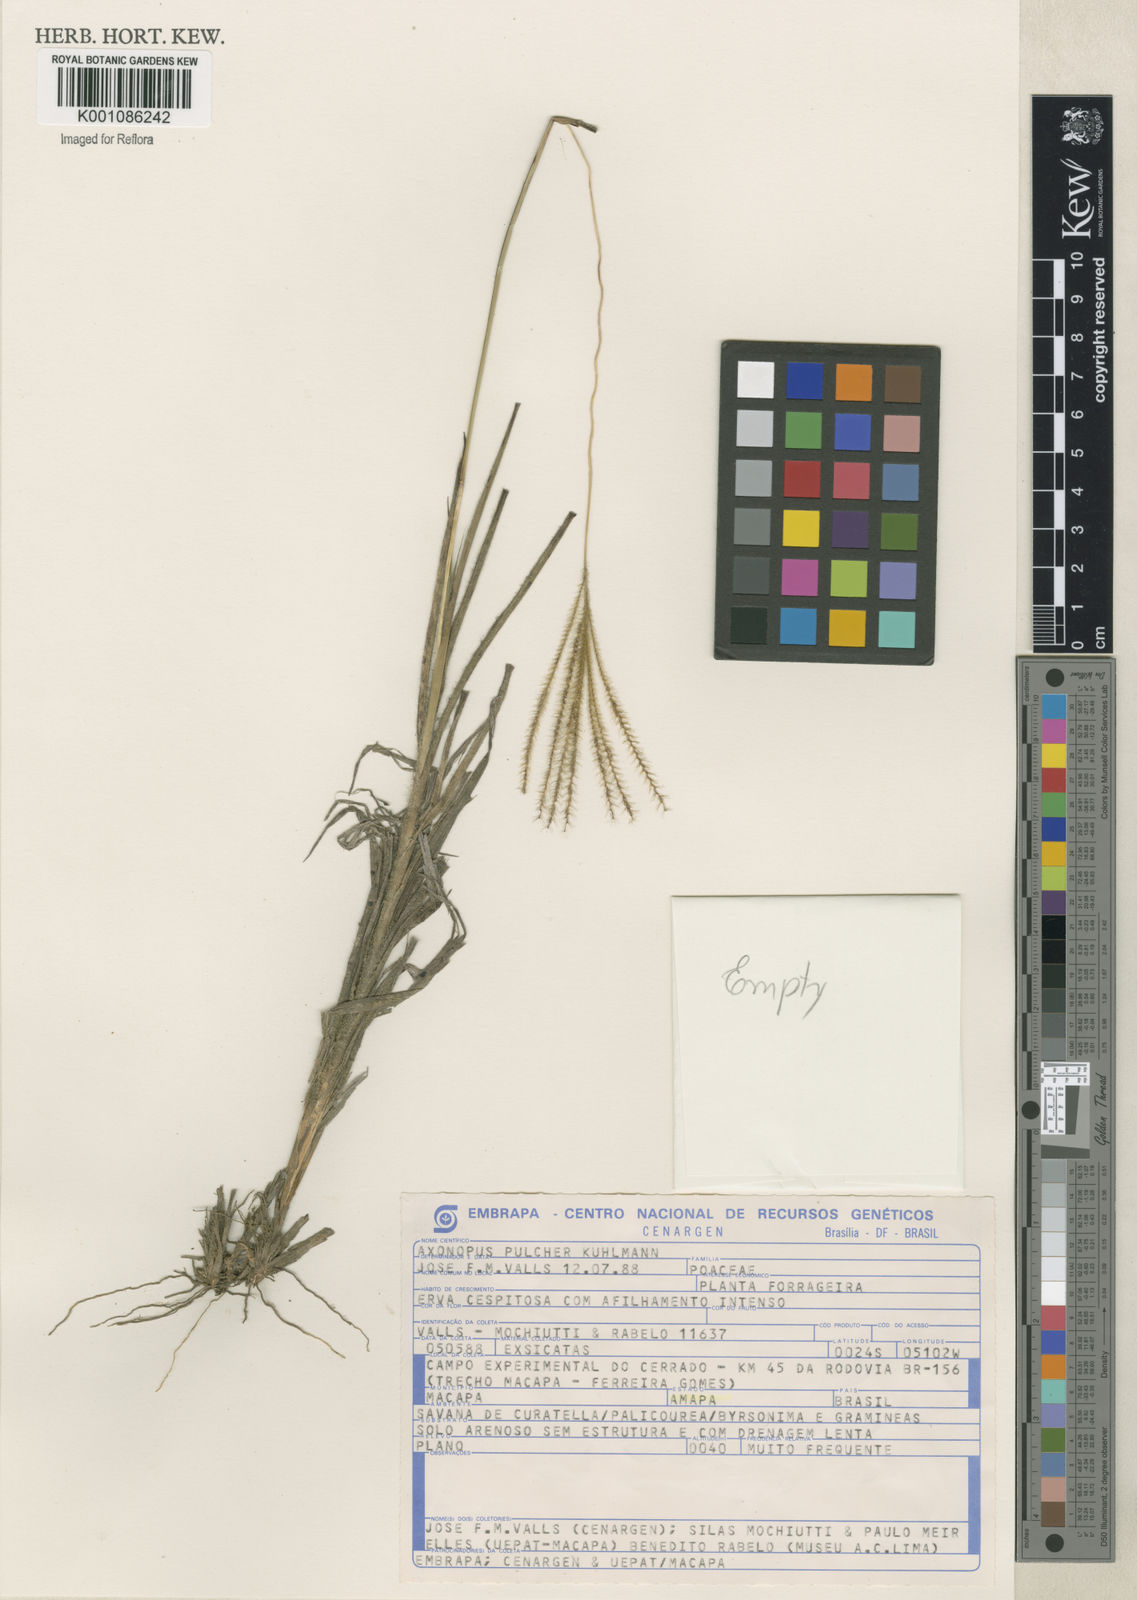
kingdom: Plantae
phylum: Tracheophyta
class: Liliopsida
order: Poales
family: Poaceae
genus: Axonopus
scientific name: Axonopus aureus
